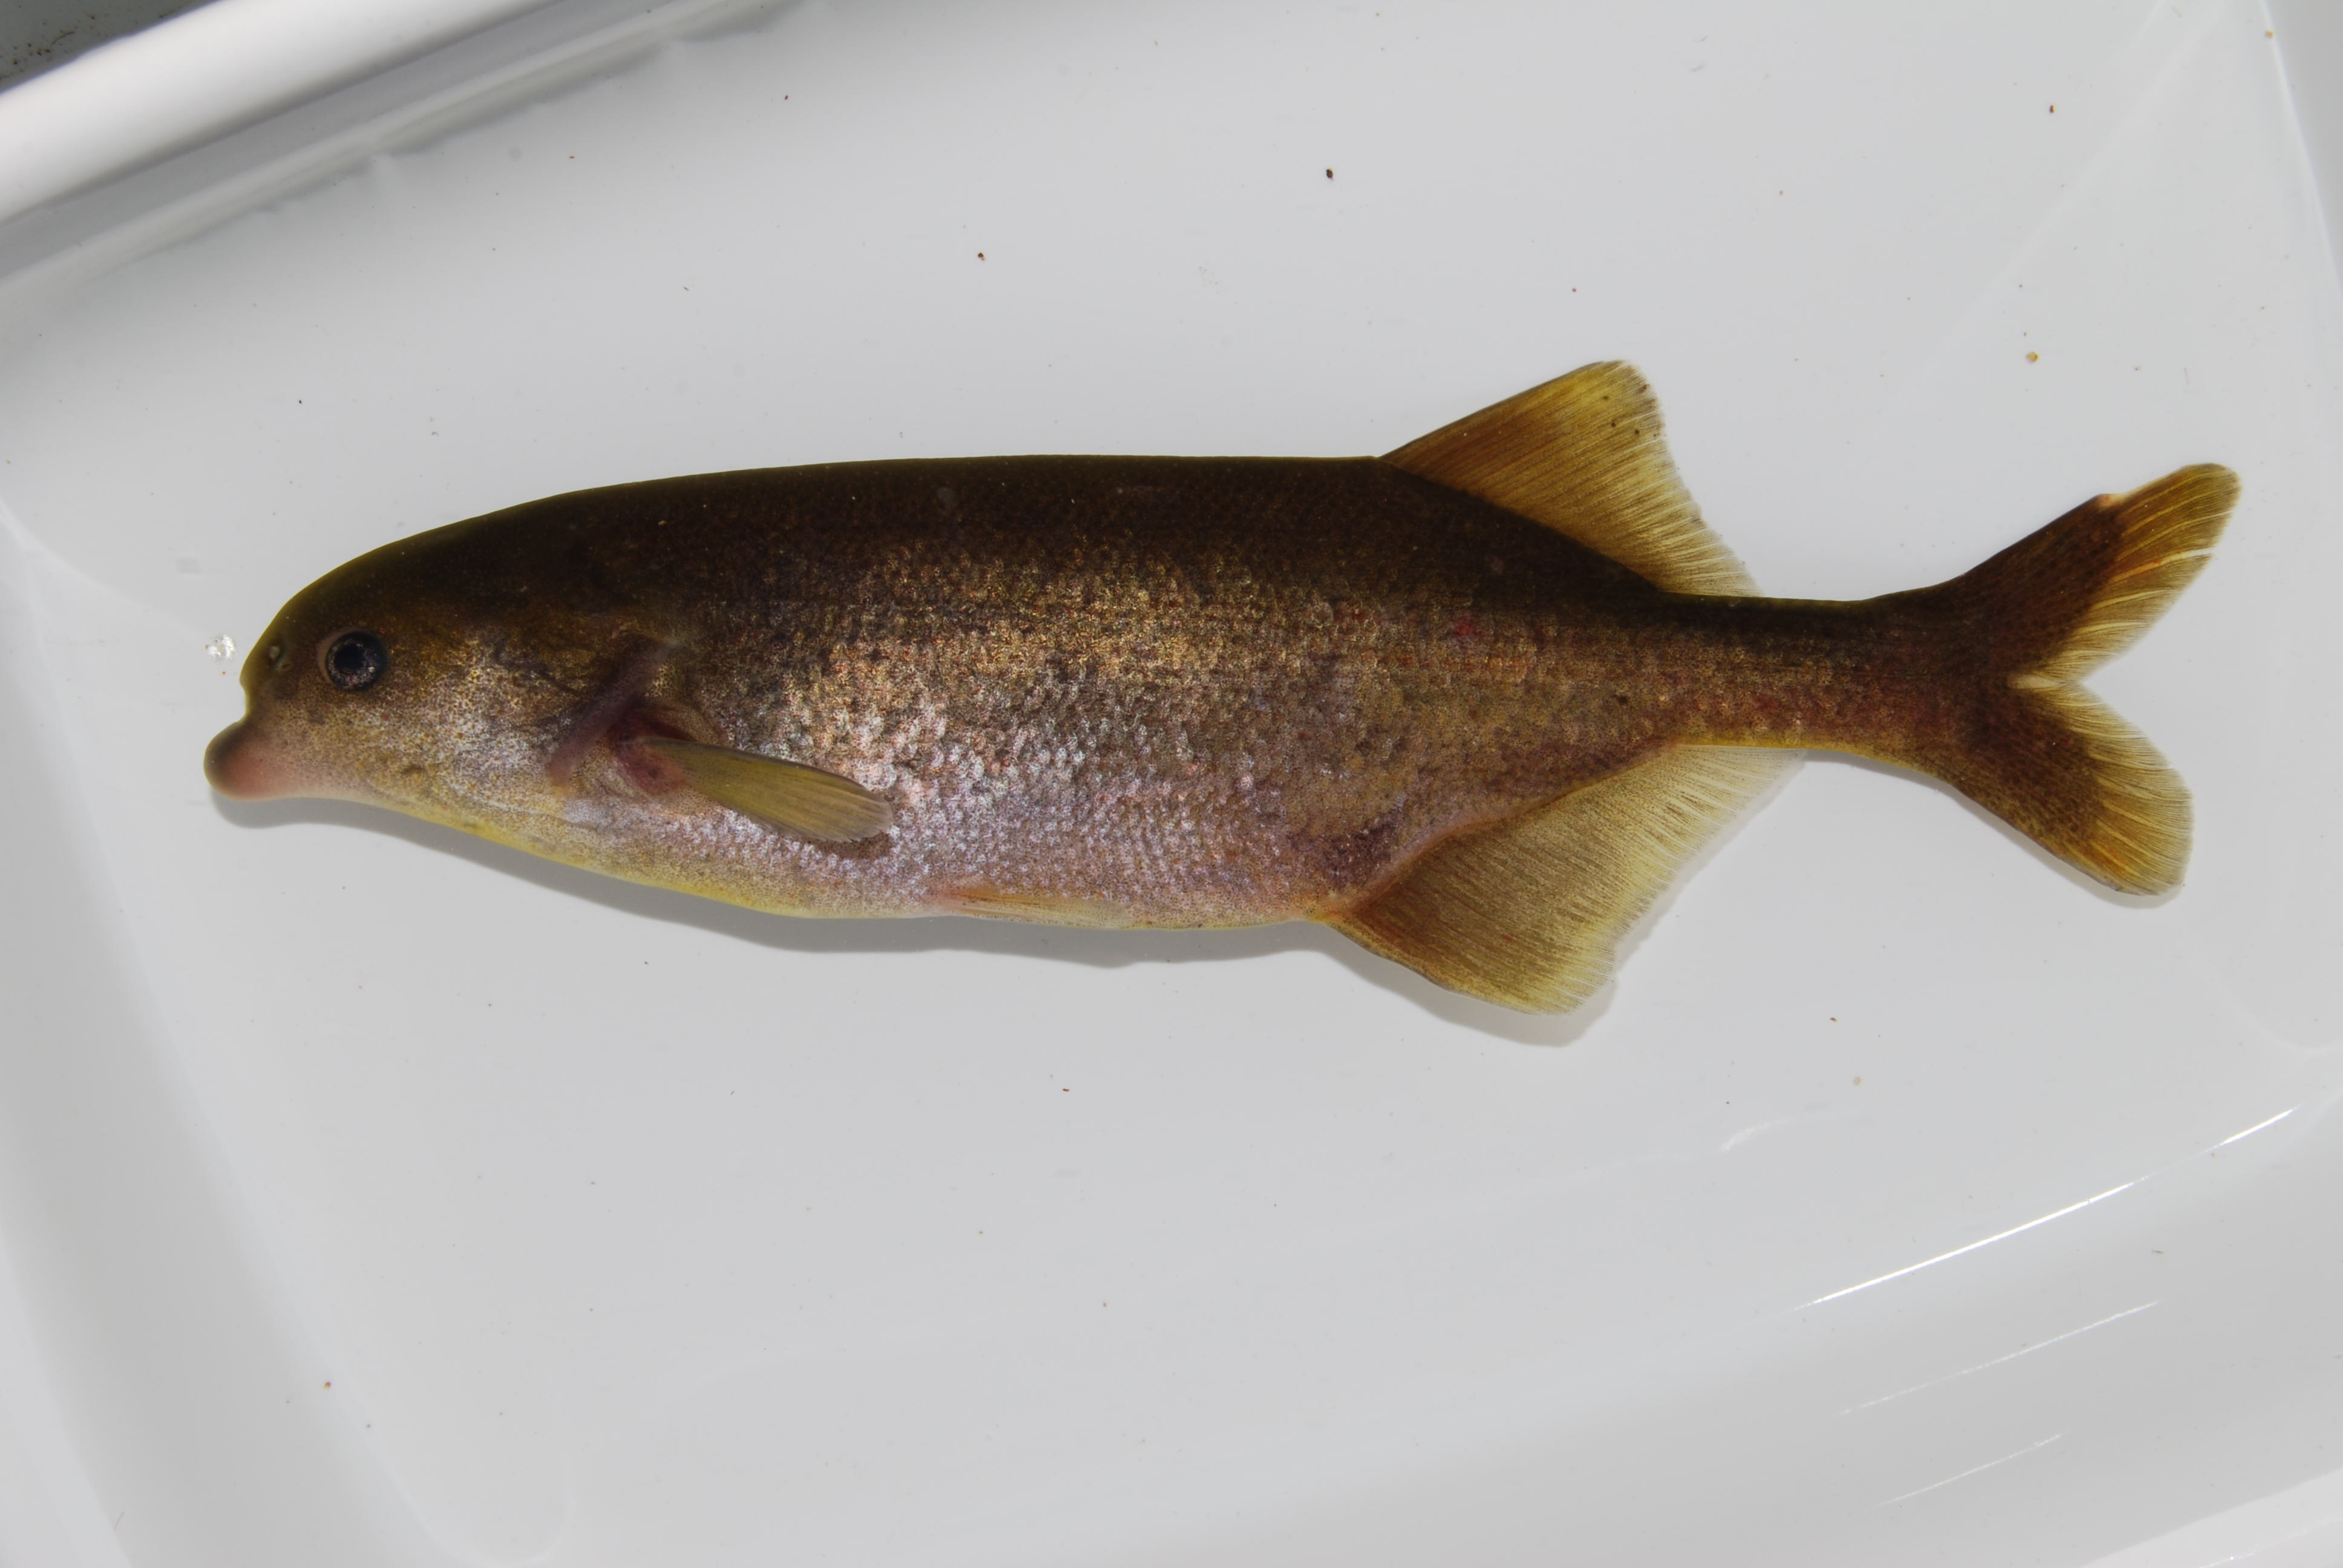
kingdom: Animalia
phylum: Chordata
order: Osteoglossiformes
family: Mormyridae
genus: Marcusenius
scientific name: Marcusenius
